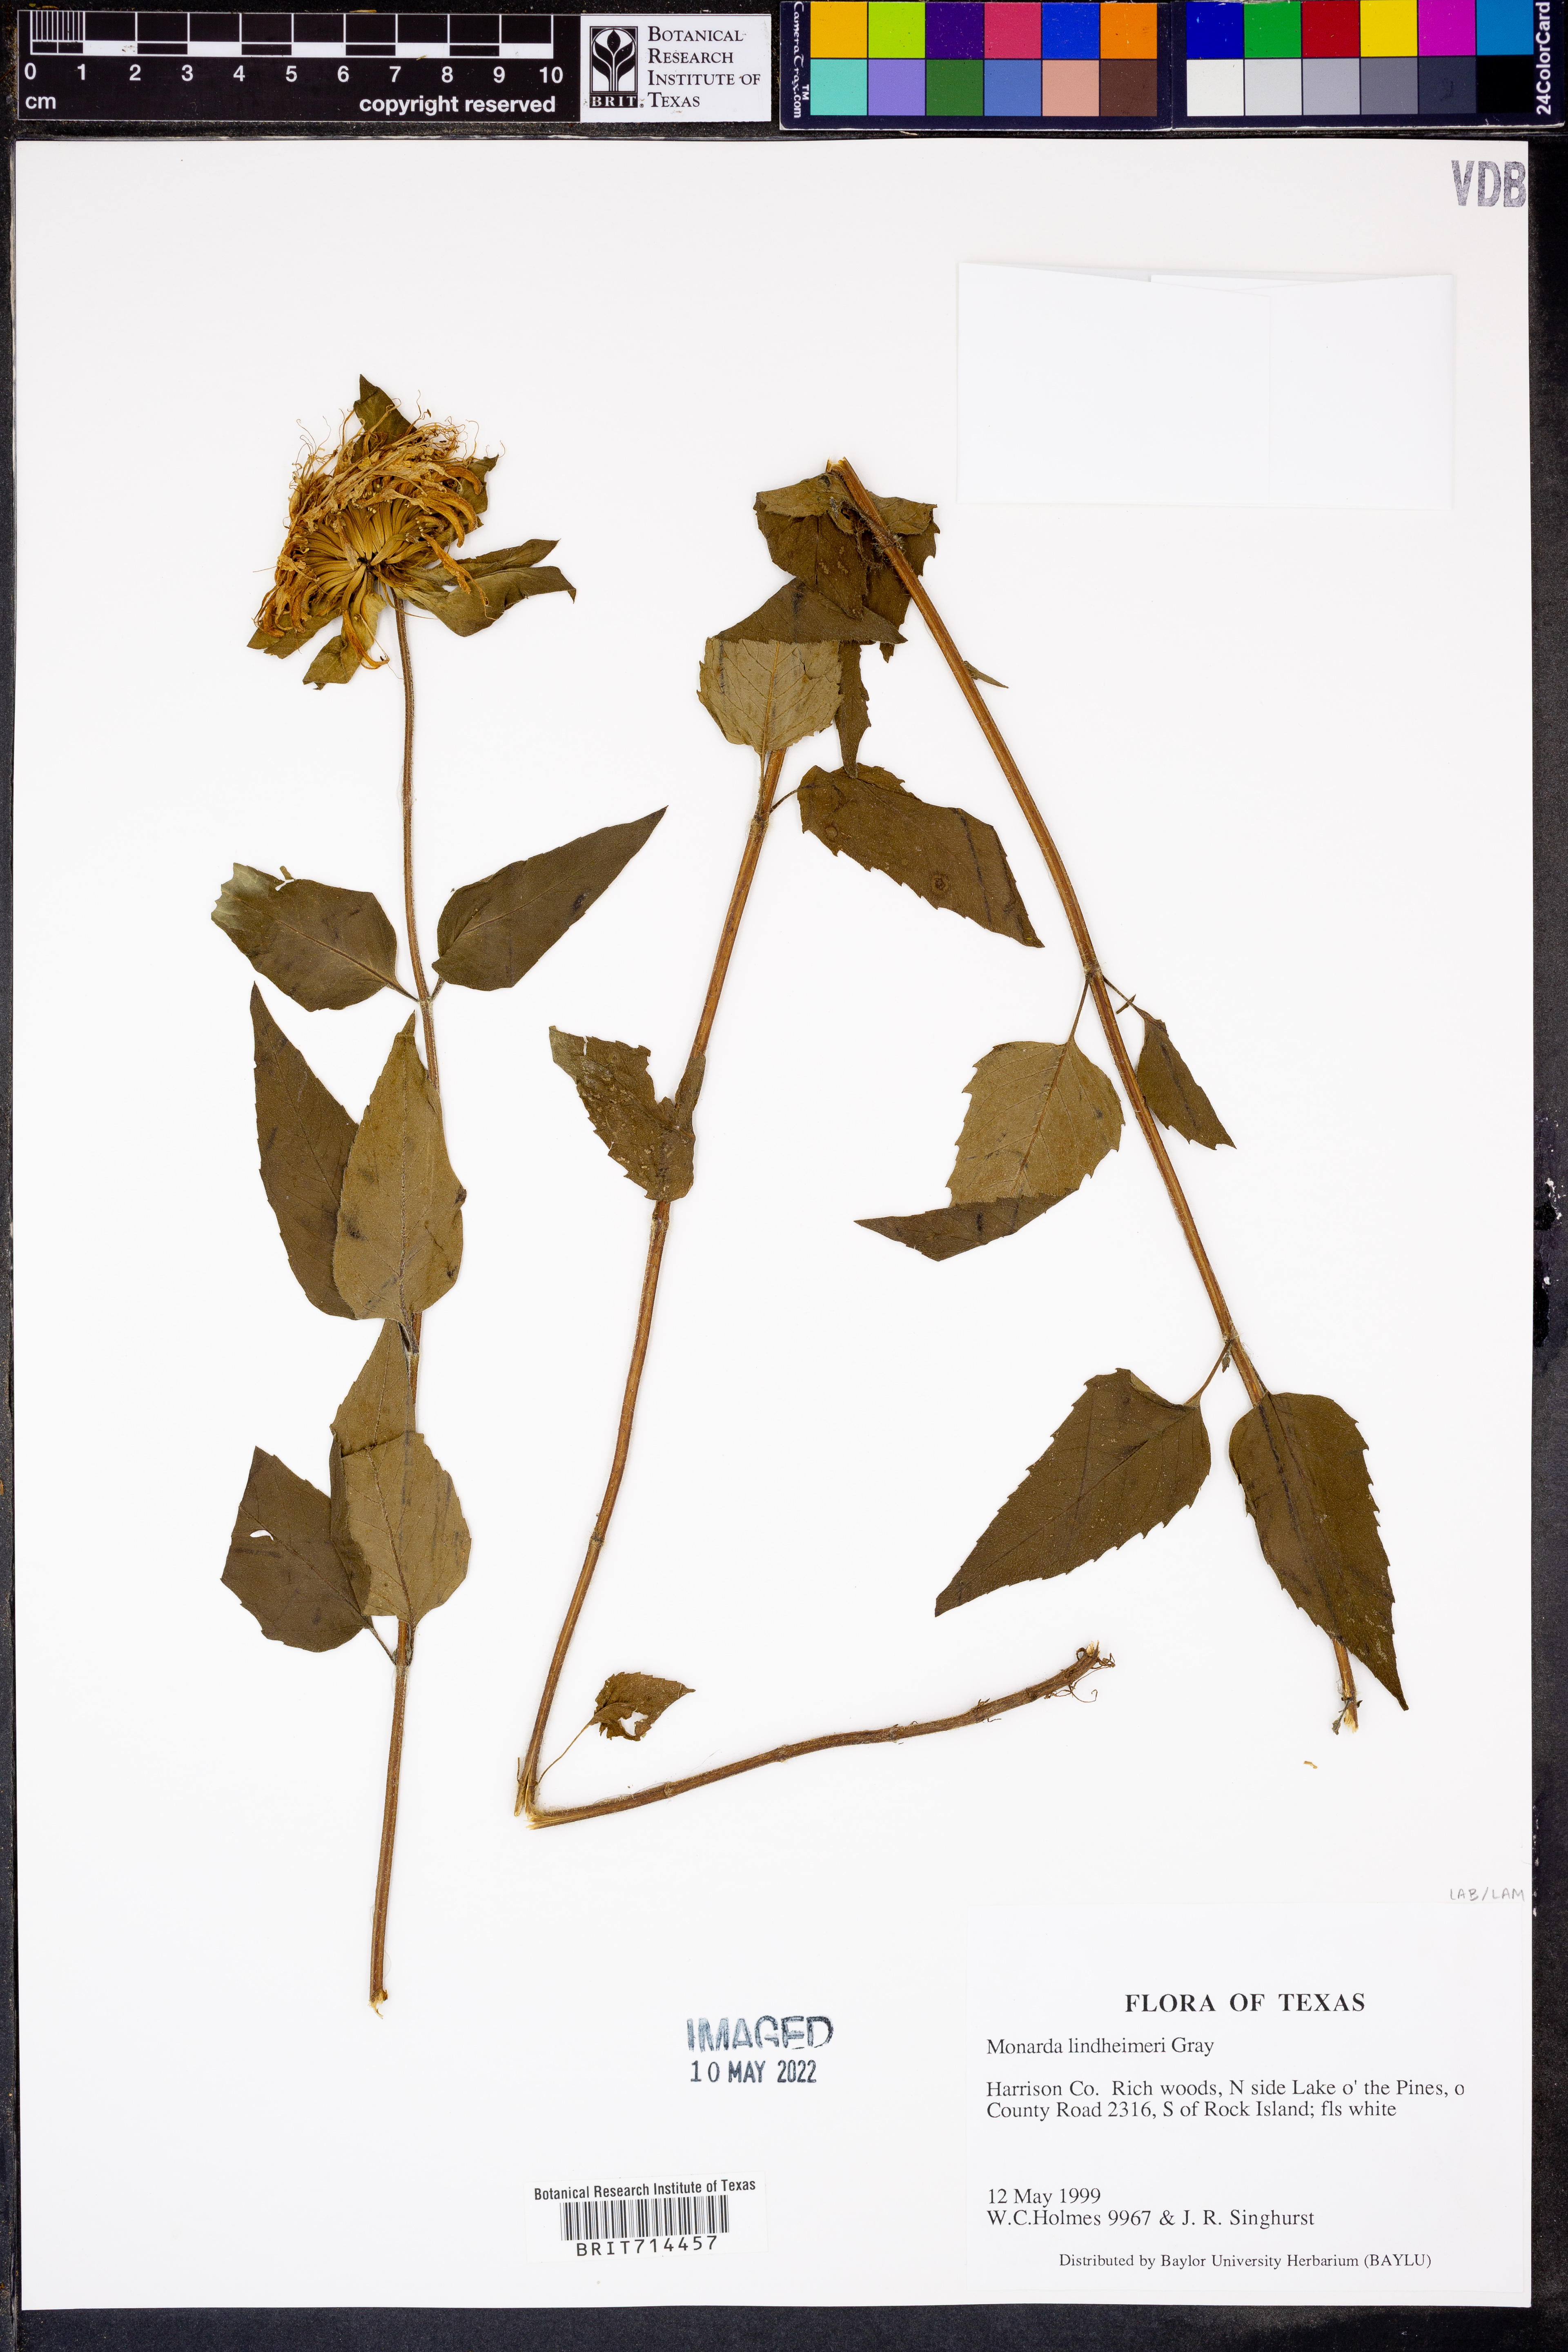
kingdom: Plantae
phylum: Tracheophyta
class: Magnoliopsida
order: Lamiales
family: Lamiaceae
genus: Monarda
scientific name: Monarda lindheimeri
